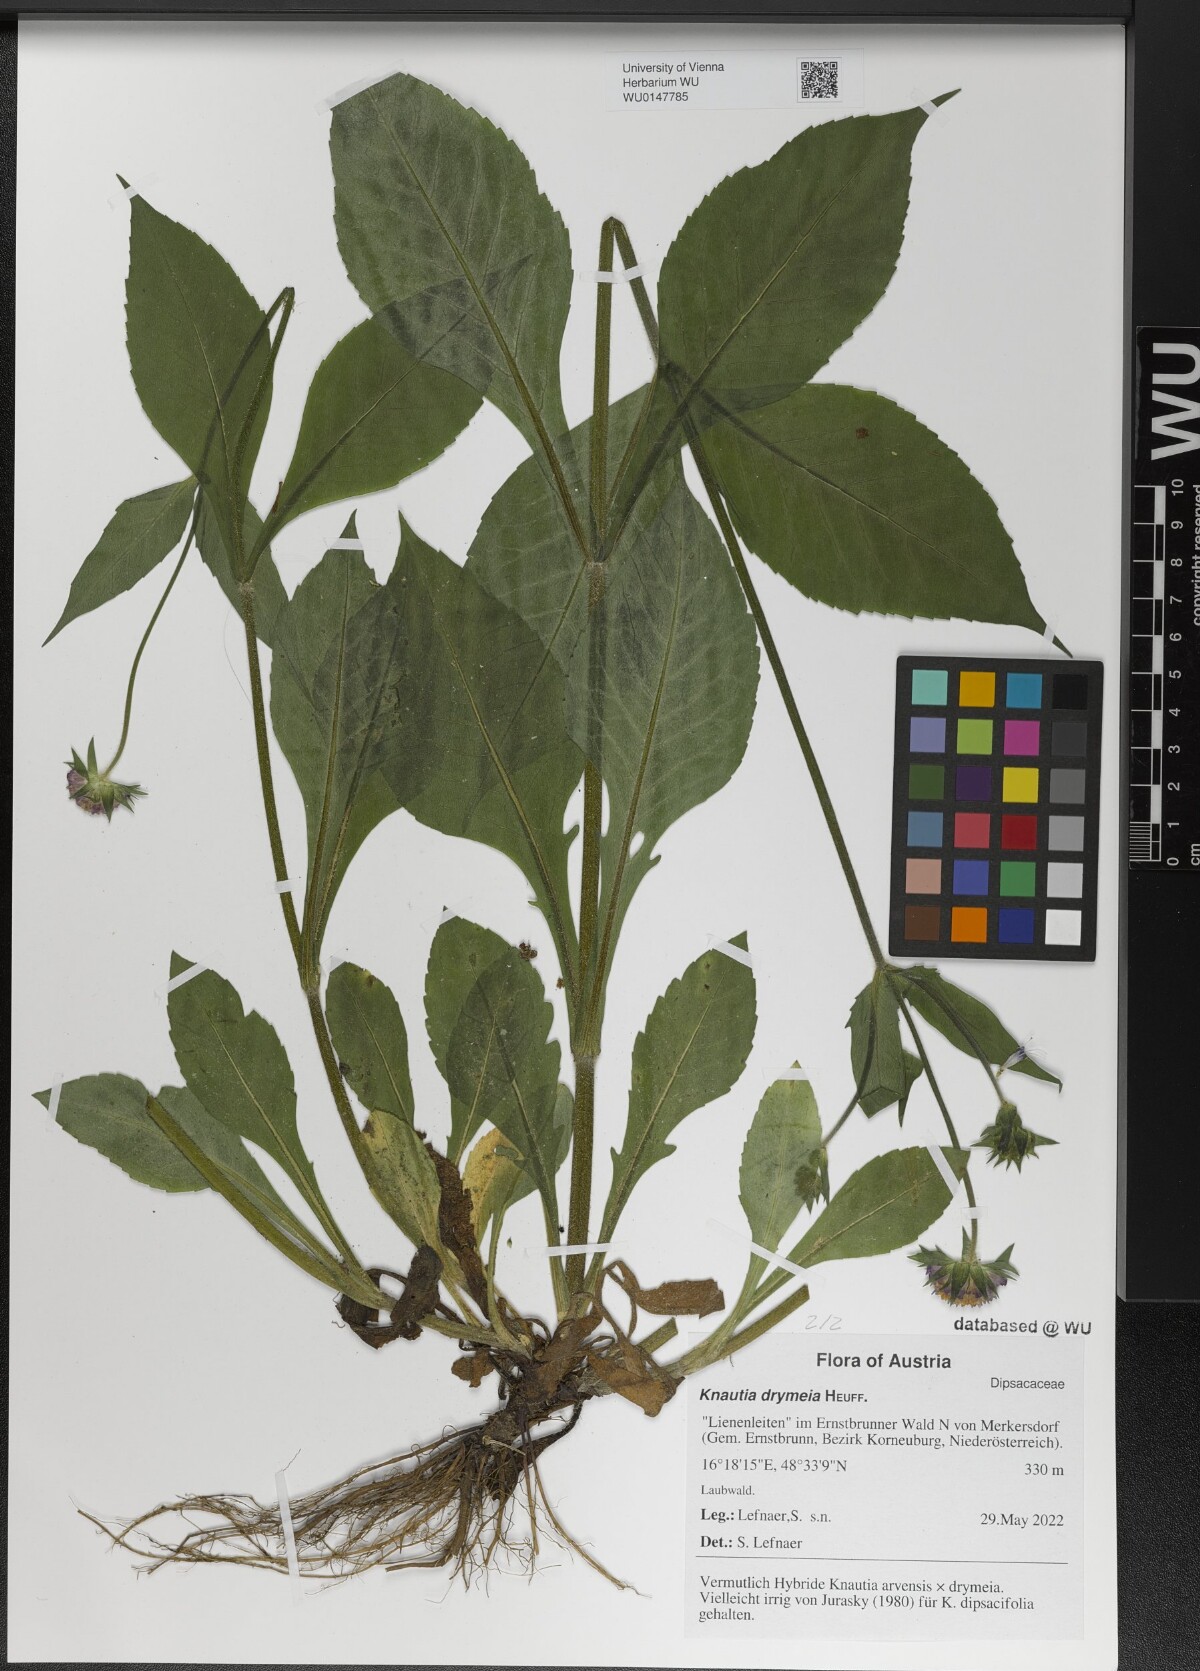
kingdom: Plantae
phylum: Tracheophyta
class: Magnoliopsida
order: Dipsacales
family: Caprifoliaceae
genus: Knautia
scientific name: Knautia drymeia
